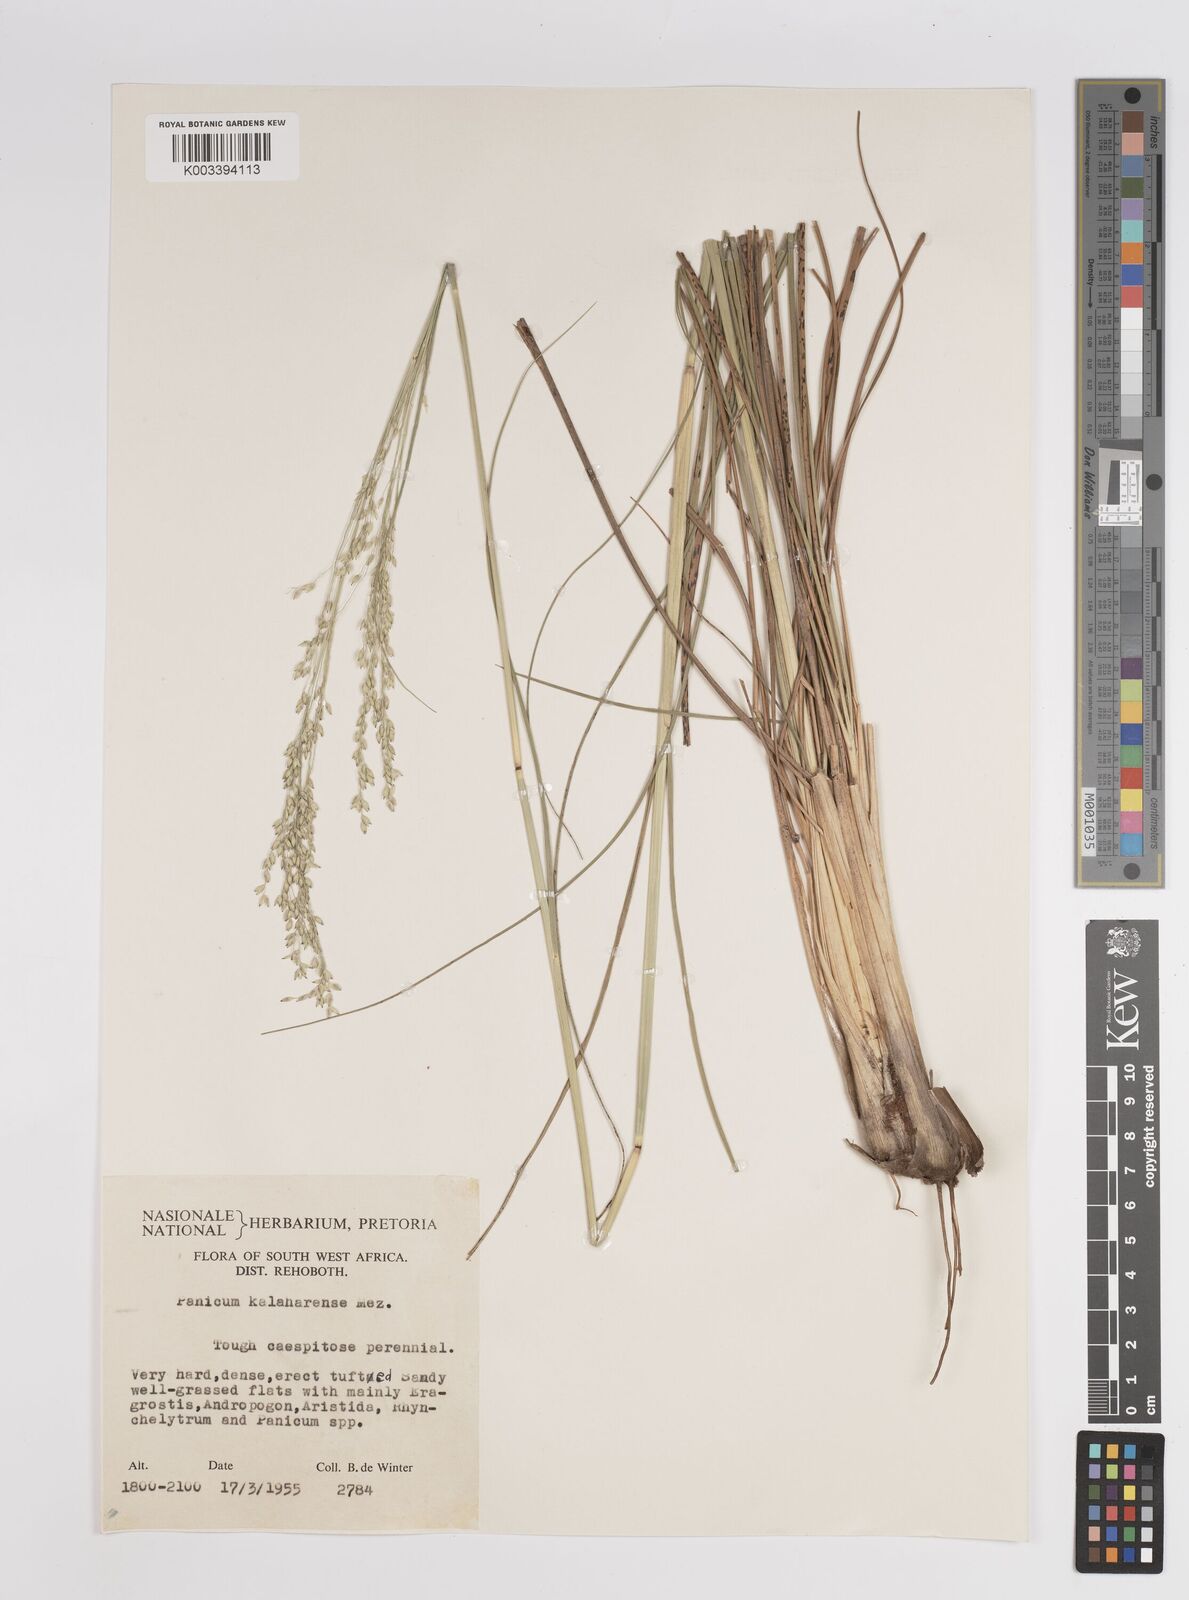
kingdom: Plantae
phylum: Tracheophyta
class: Liliopsida
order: Poales
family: Poaceae
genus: Panicum
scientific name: Panicum kalaharense
